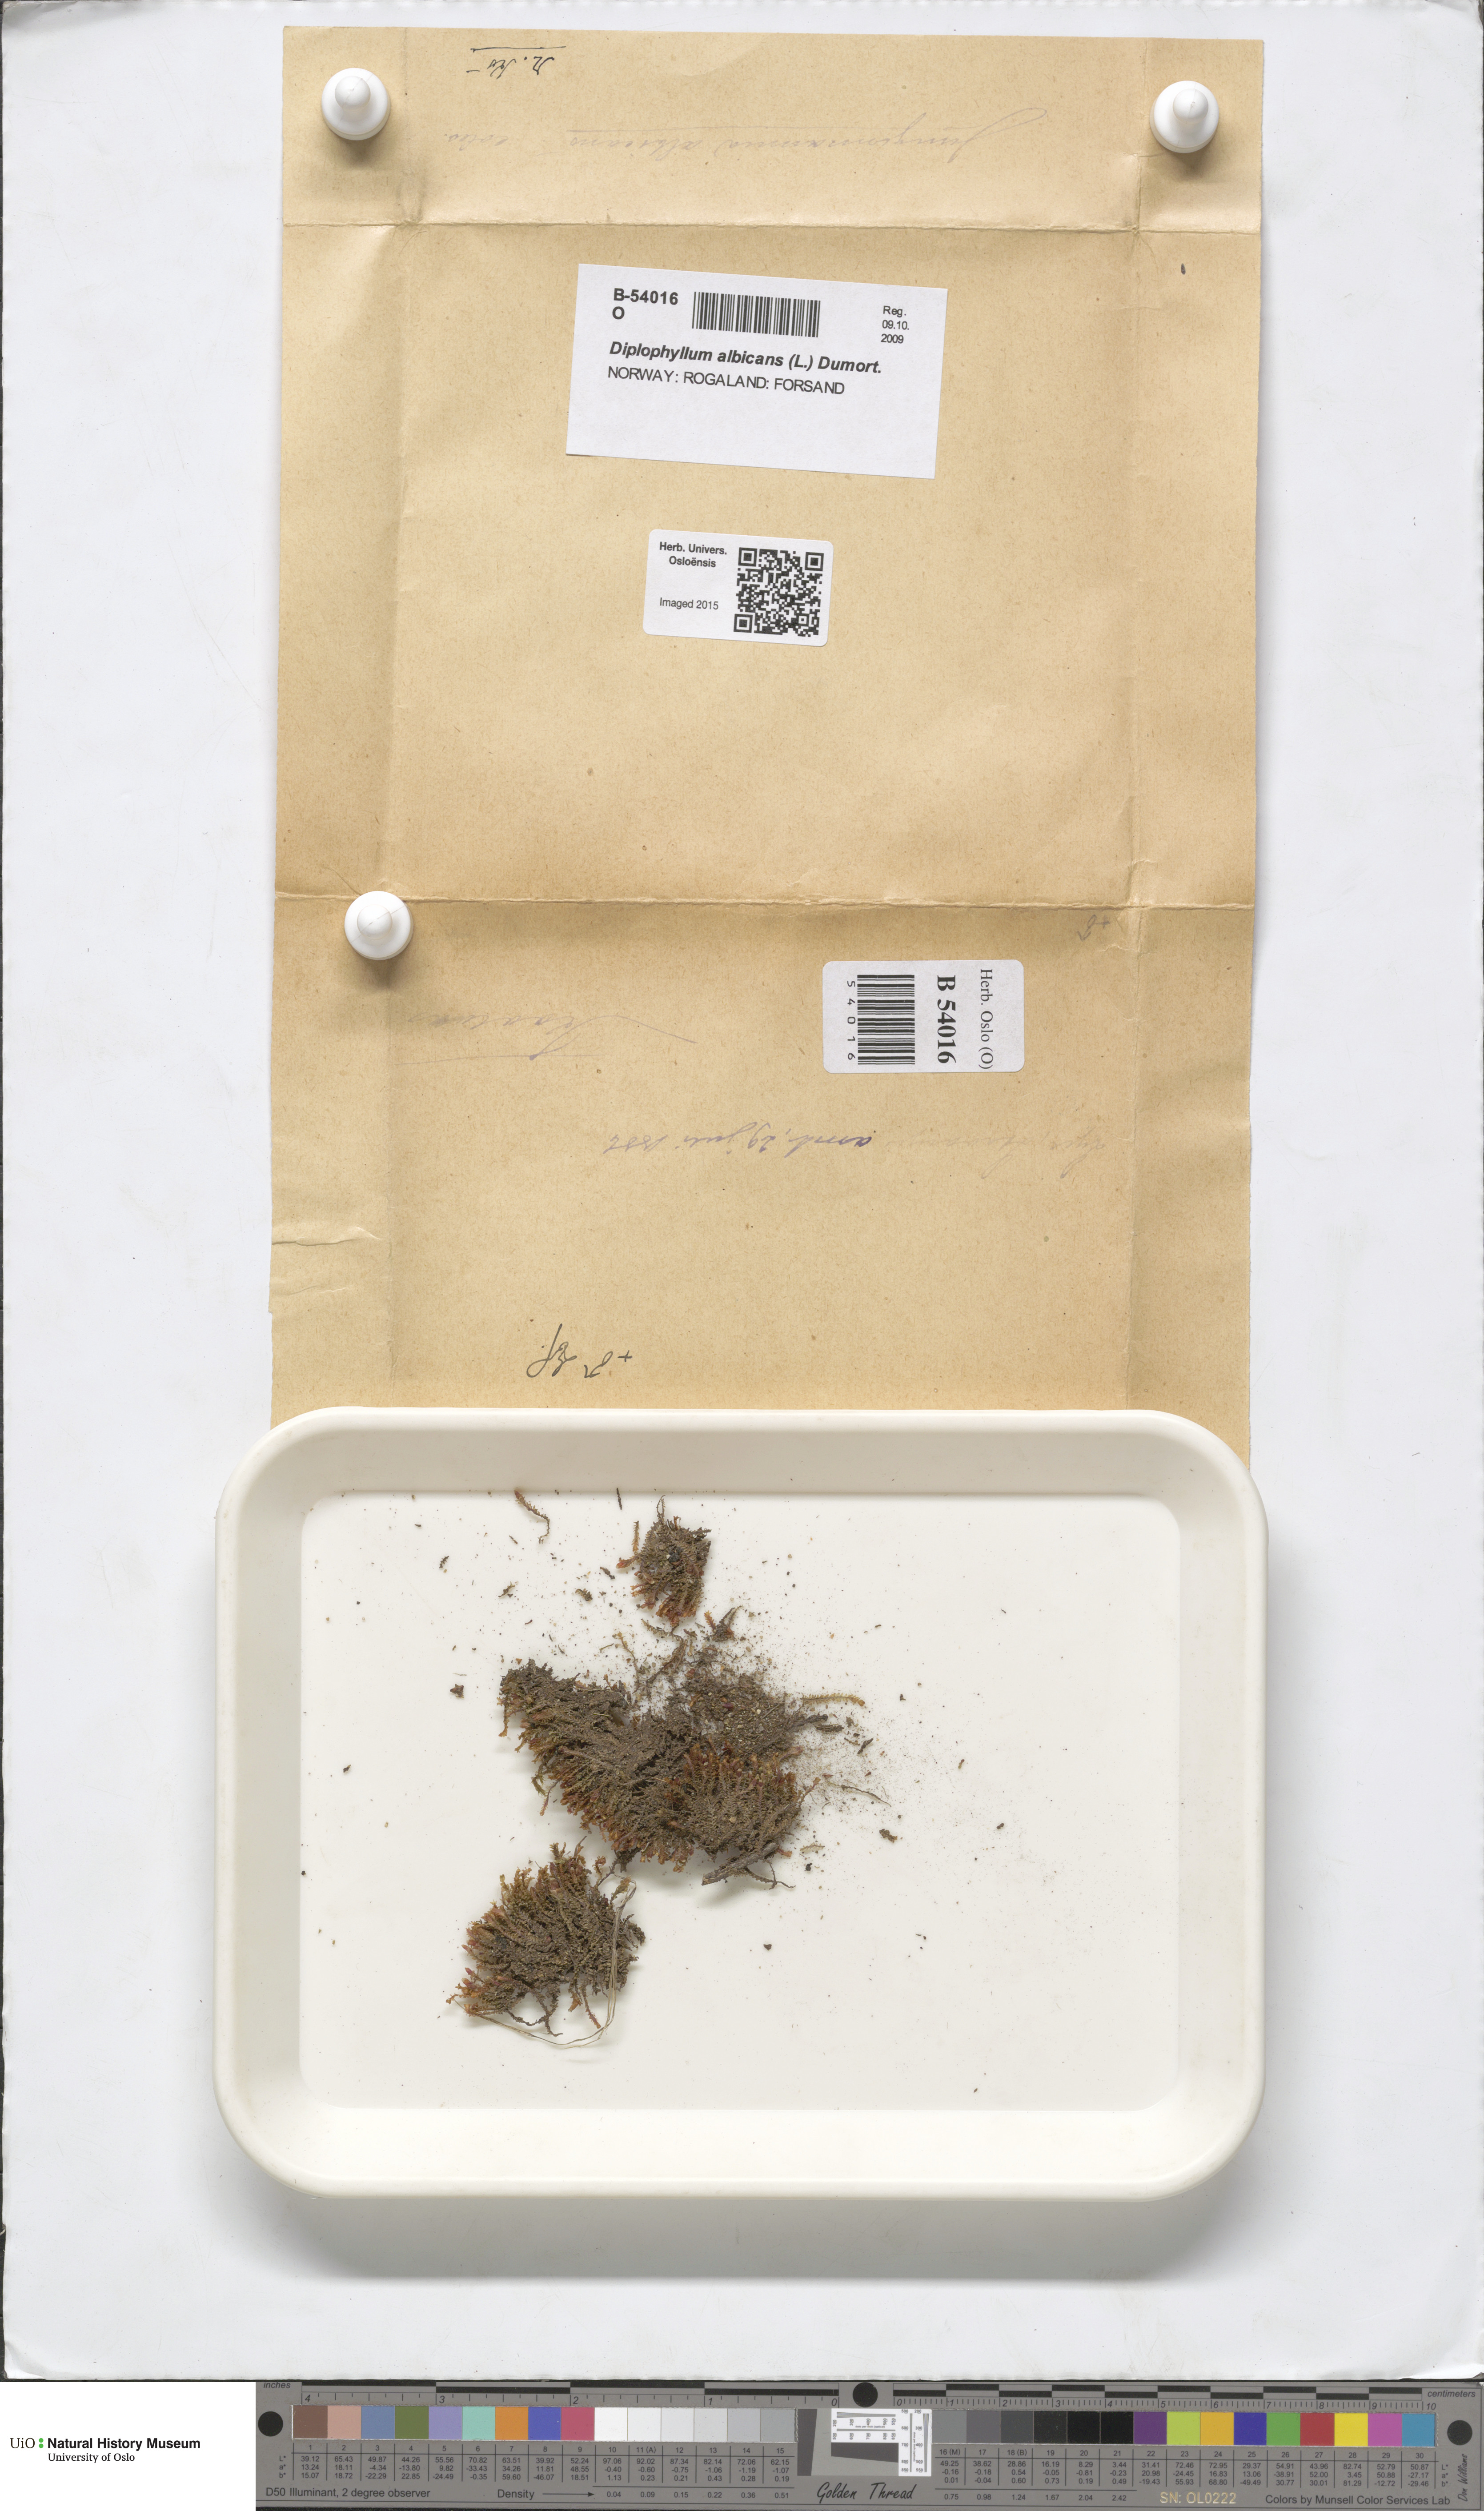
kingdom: Plantae
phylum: Marchantiophyta
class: Jungermanniopsida
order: Jungermanniales
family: Scapaniaceae
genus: Diplophyllum
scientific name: Diplophyllum albicans
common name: White earwort
